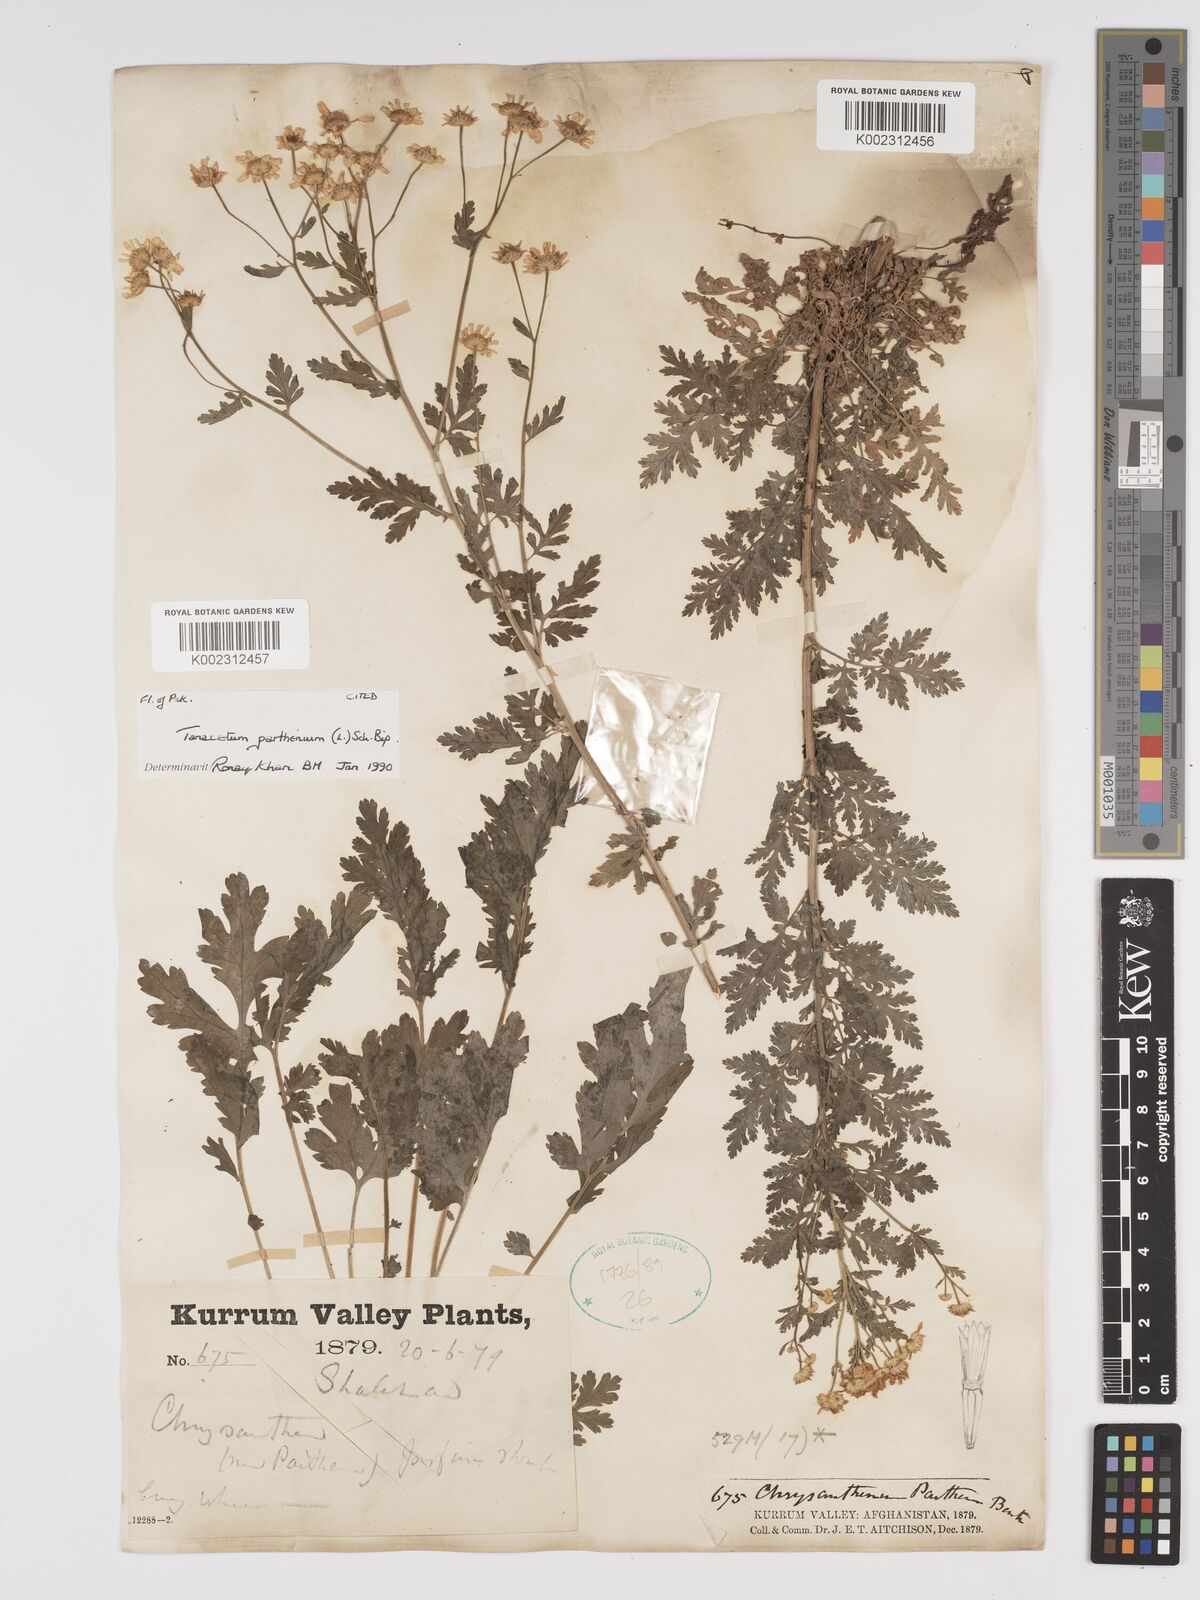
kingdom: Plantae
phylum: Tracheophyta
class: Magnoliopsida
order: Asterales
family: Asteraceae
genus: Tanacetum
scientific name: Tanacetum parthenium
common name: Feverfew
